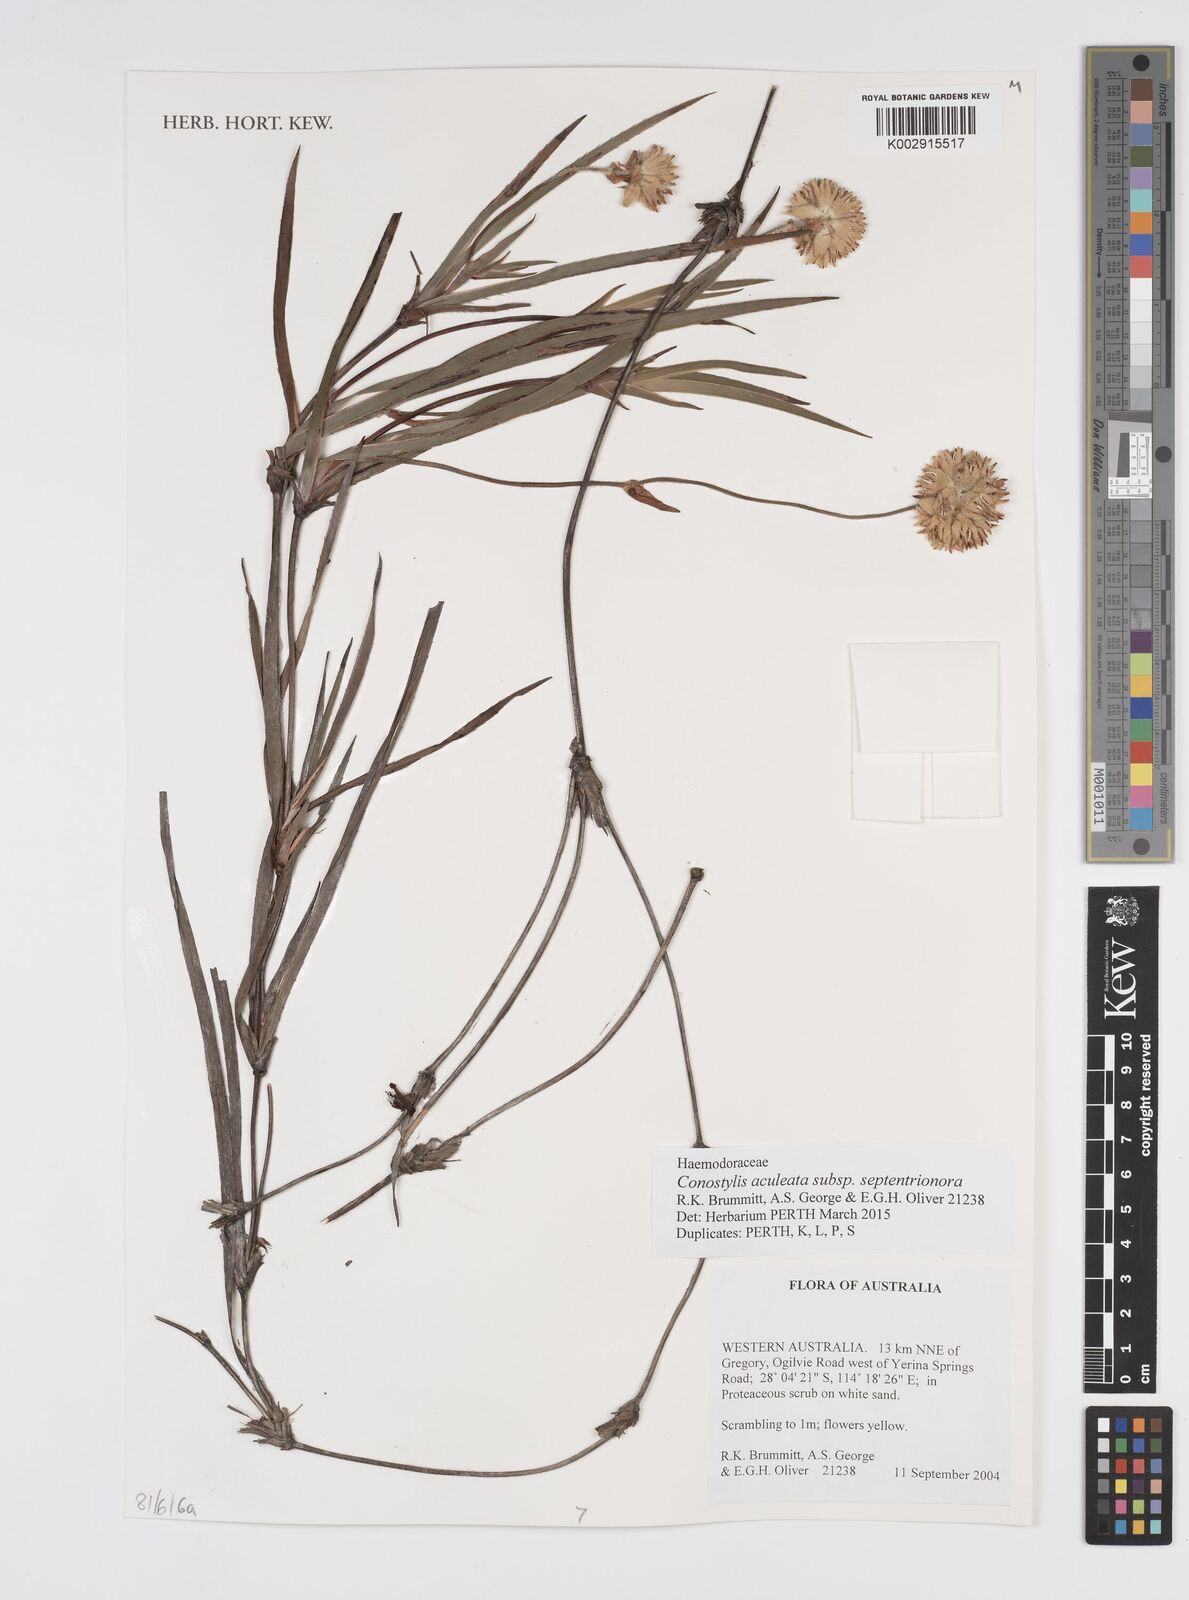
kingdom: Plantae
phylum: Tracheophyta
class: Liliopsida
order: Commelinales
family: Haemodoraceae
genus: Conostylis
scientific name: Conostylis aculeata
